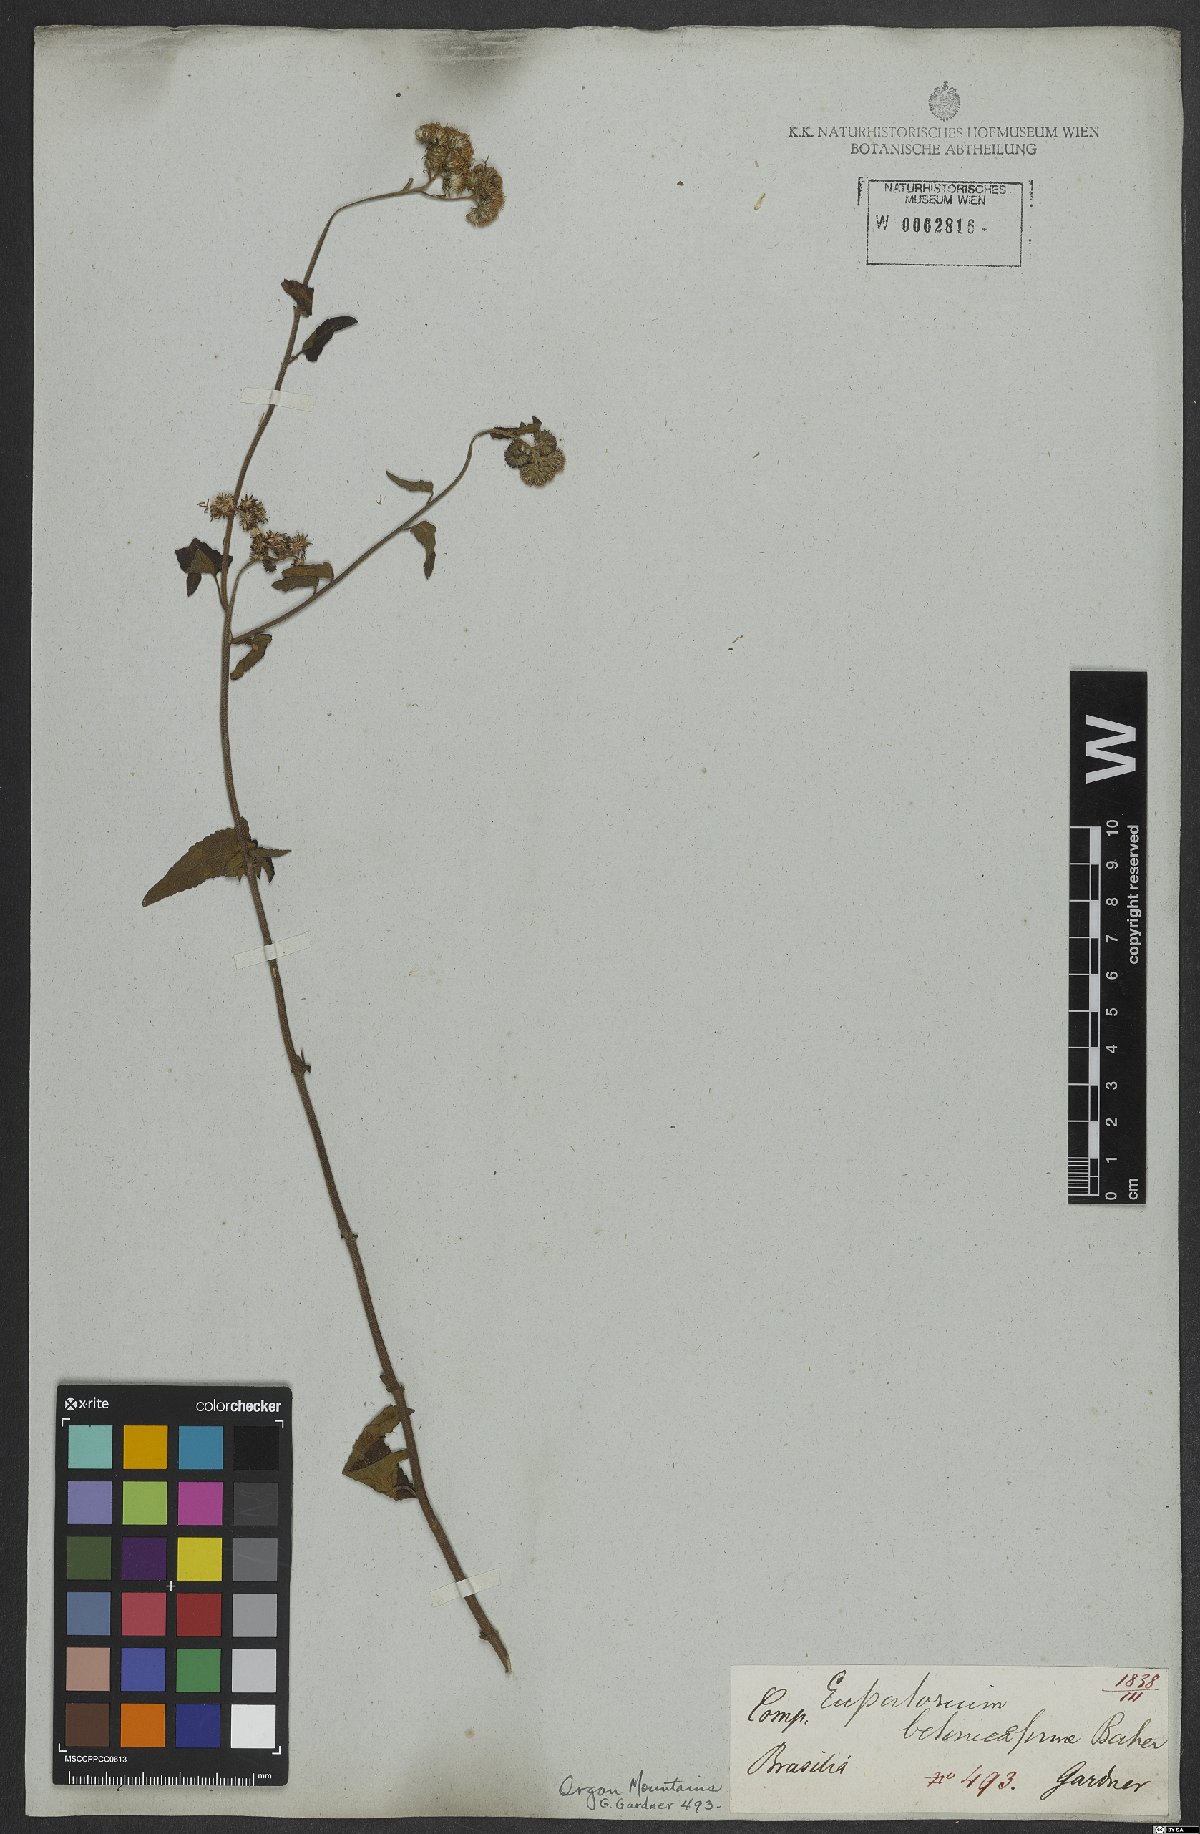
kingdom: Plantae
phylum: Tracheophyta
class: Magnoliopsida
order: Asterales
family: Asteraceae
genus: Barrosoa
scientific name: Barrosoa betoniciformis
